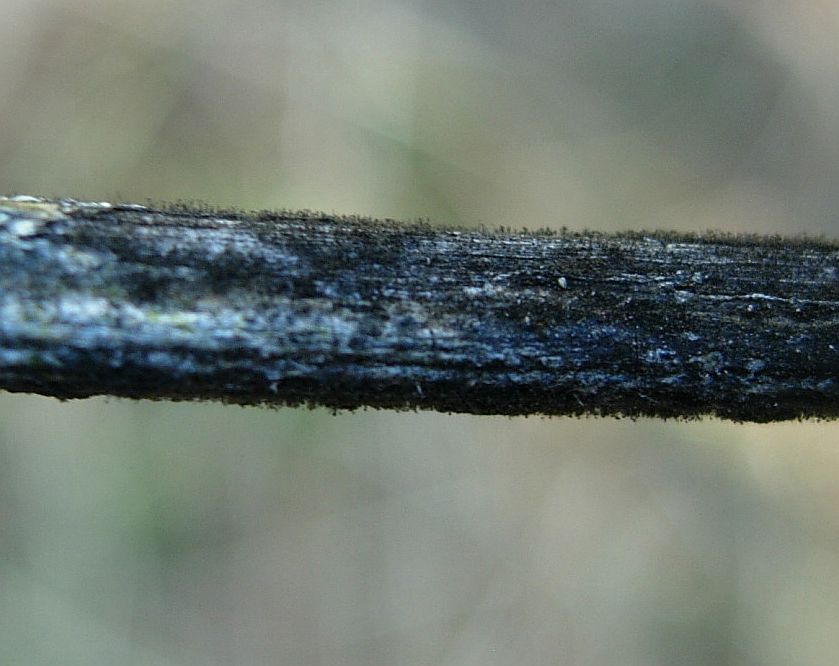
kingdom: Fungi
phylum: Ascomycota
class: Dothideomycetes
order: Pleosporales
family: Torulaceae
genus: Dendryphion
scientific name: Dendryphion comosum
